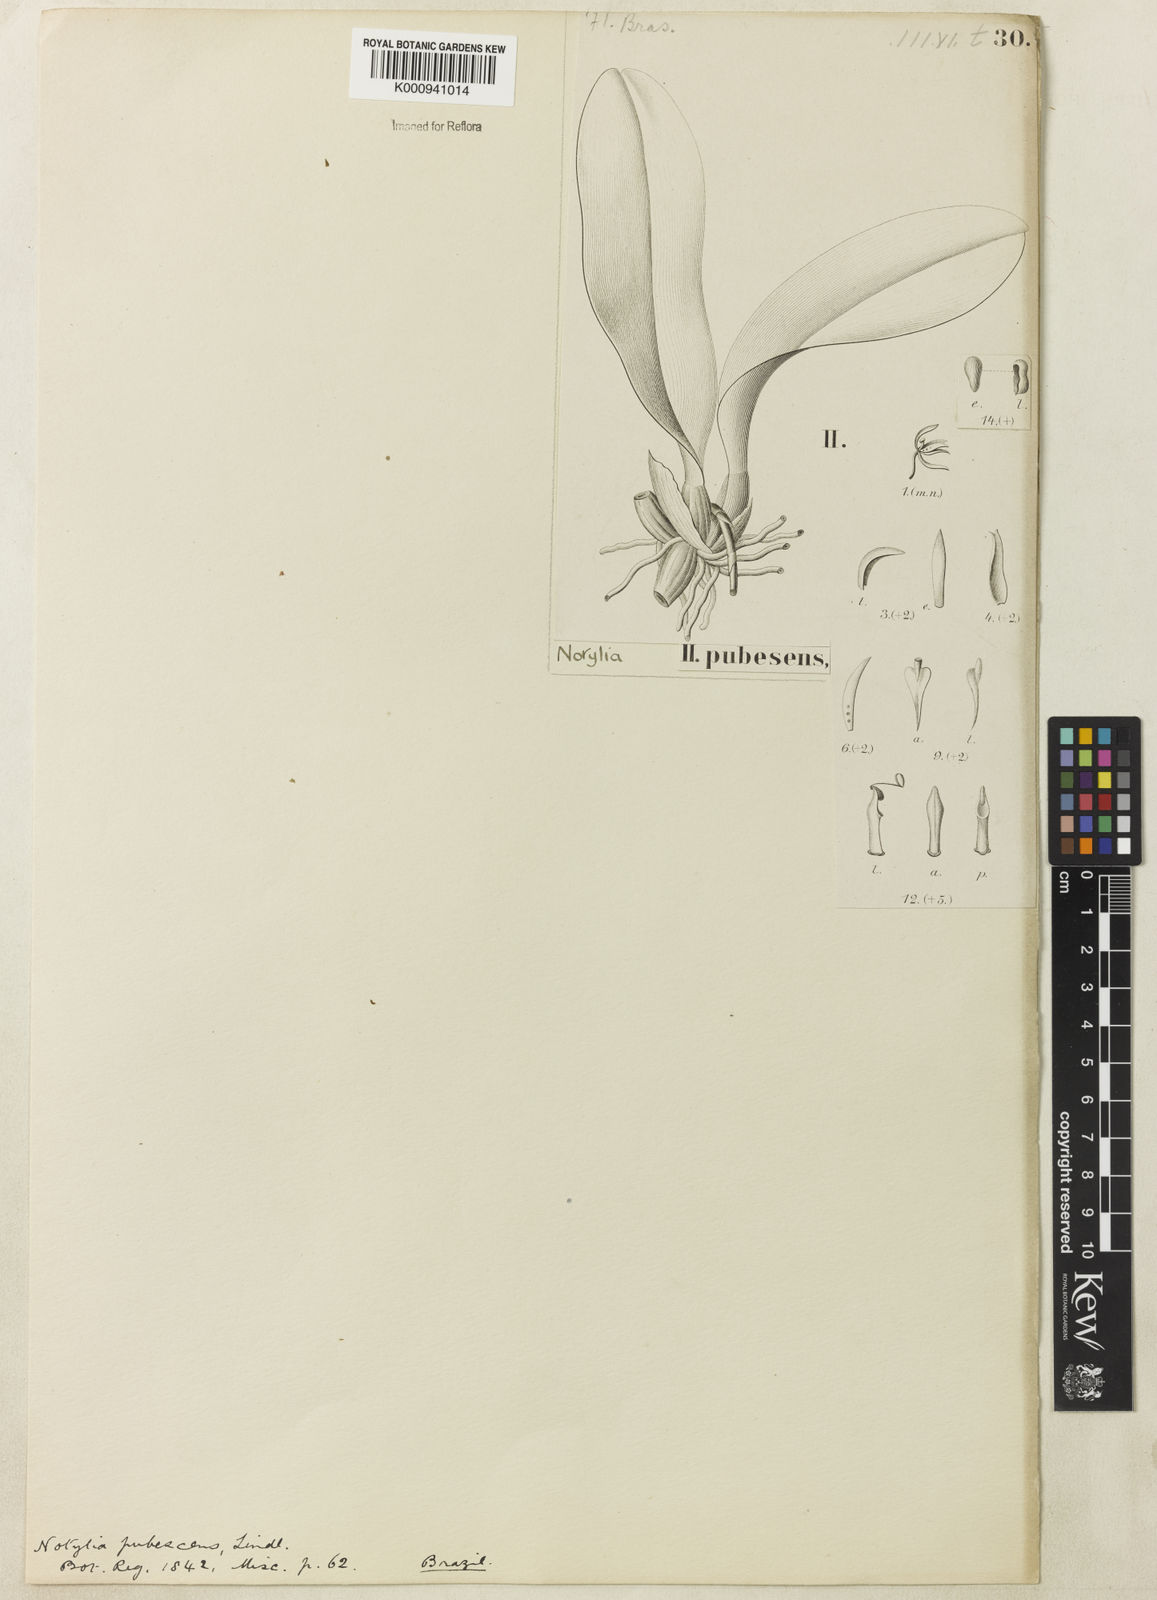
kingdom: Plantae
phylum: Tracheophyta
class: Liliopsida
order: Asparagales
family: Orchidaceae
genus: Notylia
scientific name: Notylia
